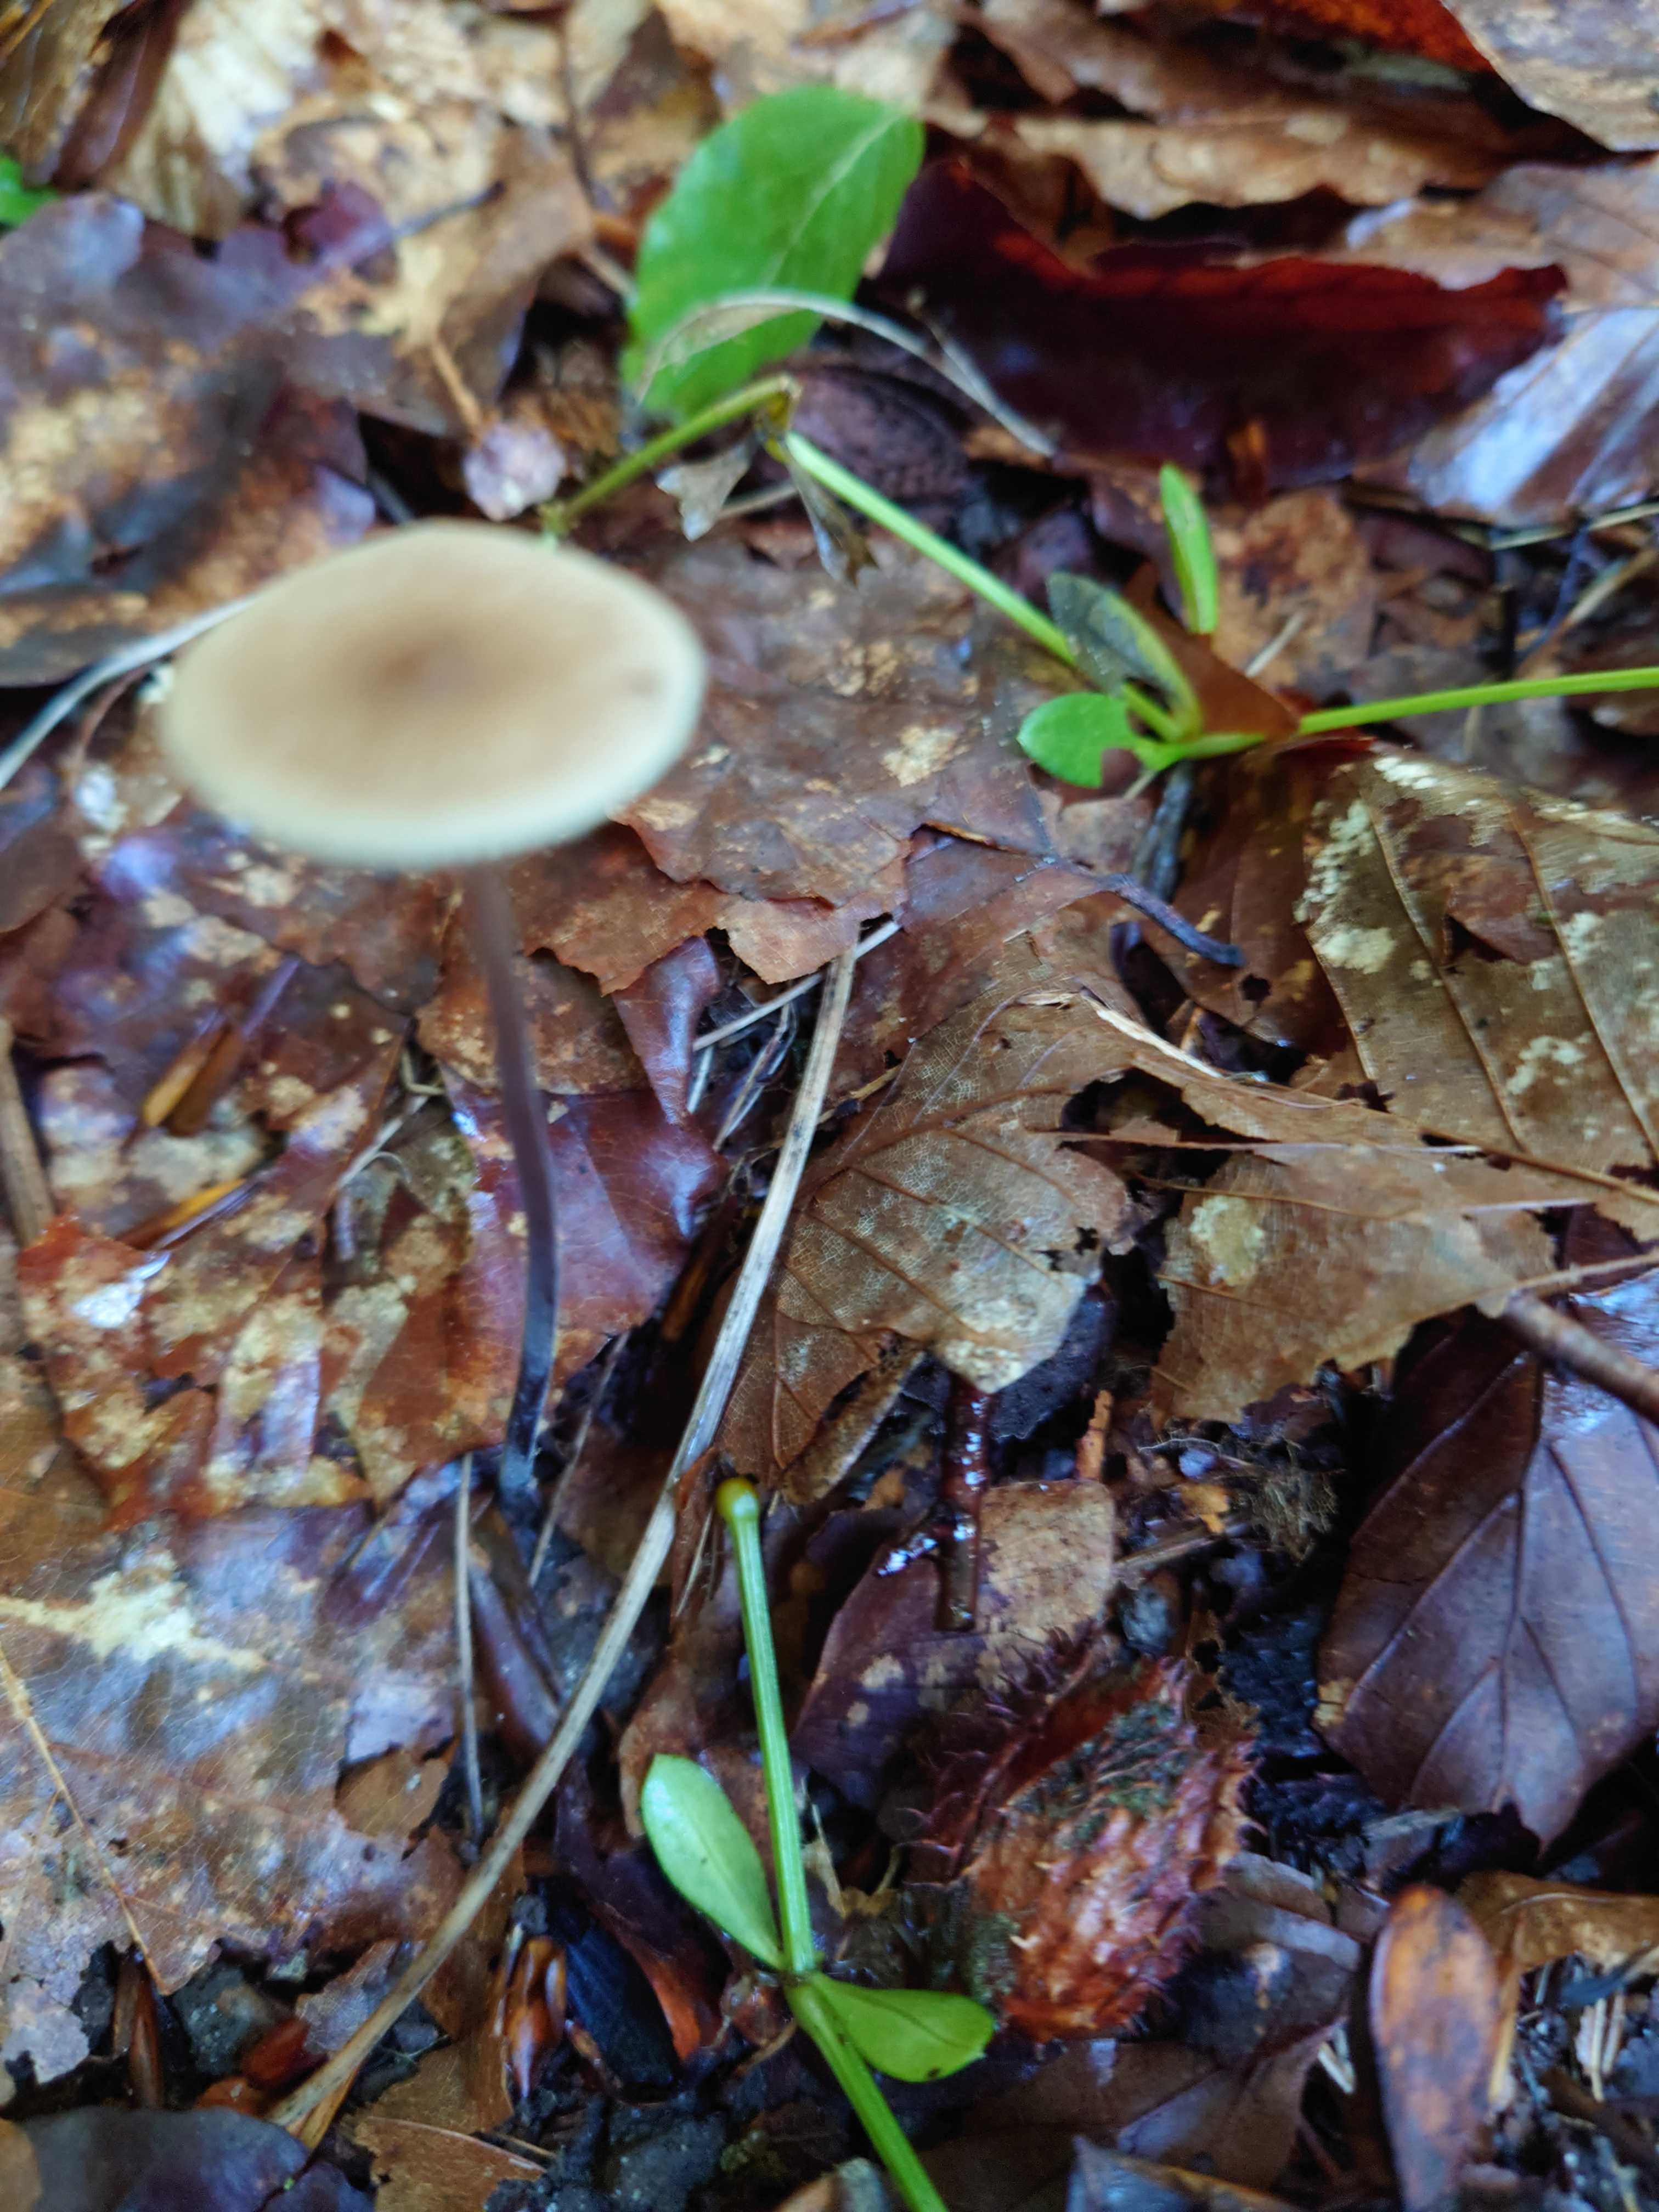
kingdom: Fungi
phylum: Basidiomycota
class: Agaricomycetes
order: Agaricales
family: Omphalotaceae
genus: Mycetinis
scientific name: Mycetinis alliaceus
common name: stor løghat
